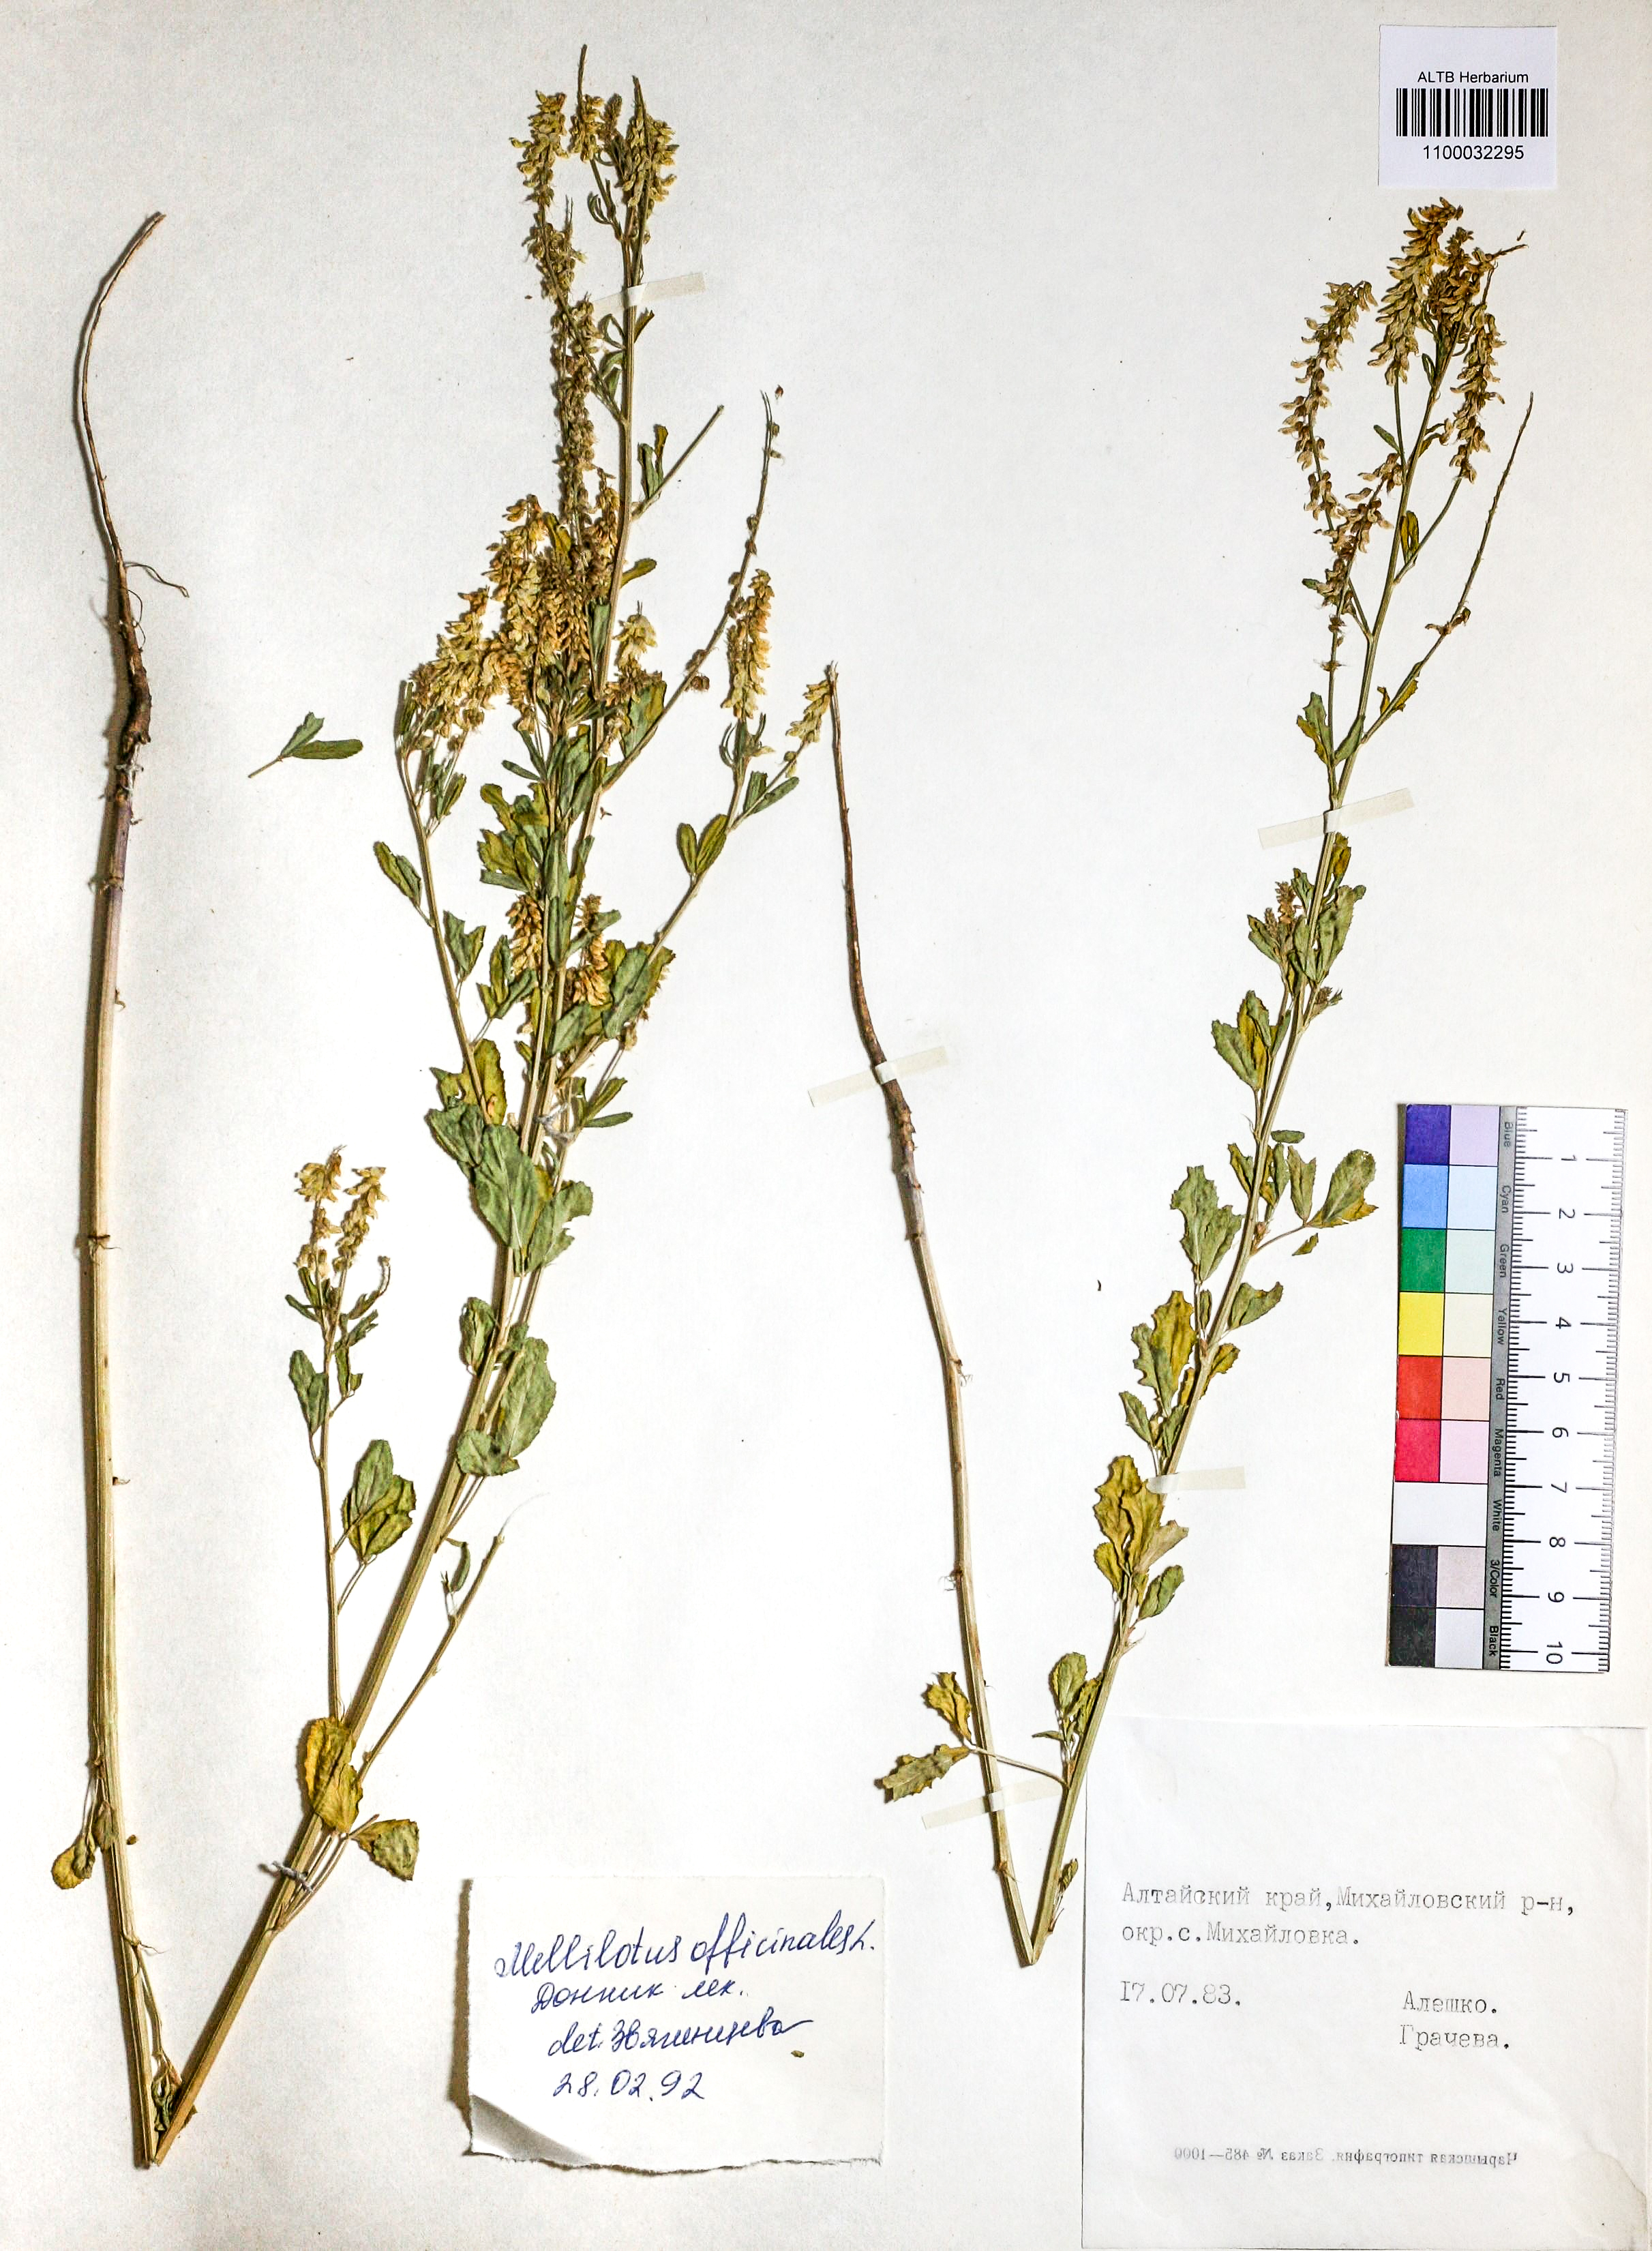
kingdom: Plantae
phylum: Tracheophyta
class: Magnoliopsida
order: Fabales
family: Fabaceae
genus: Melilotus
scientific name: Melilotus officinalis
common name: Sweetclover
